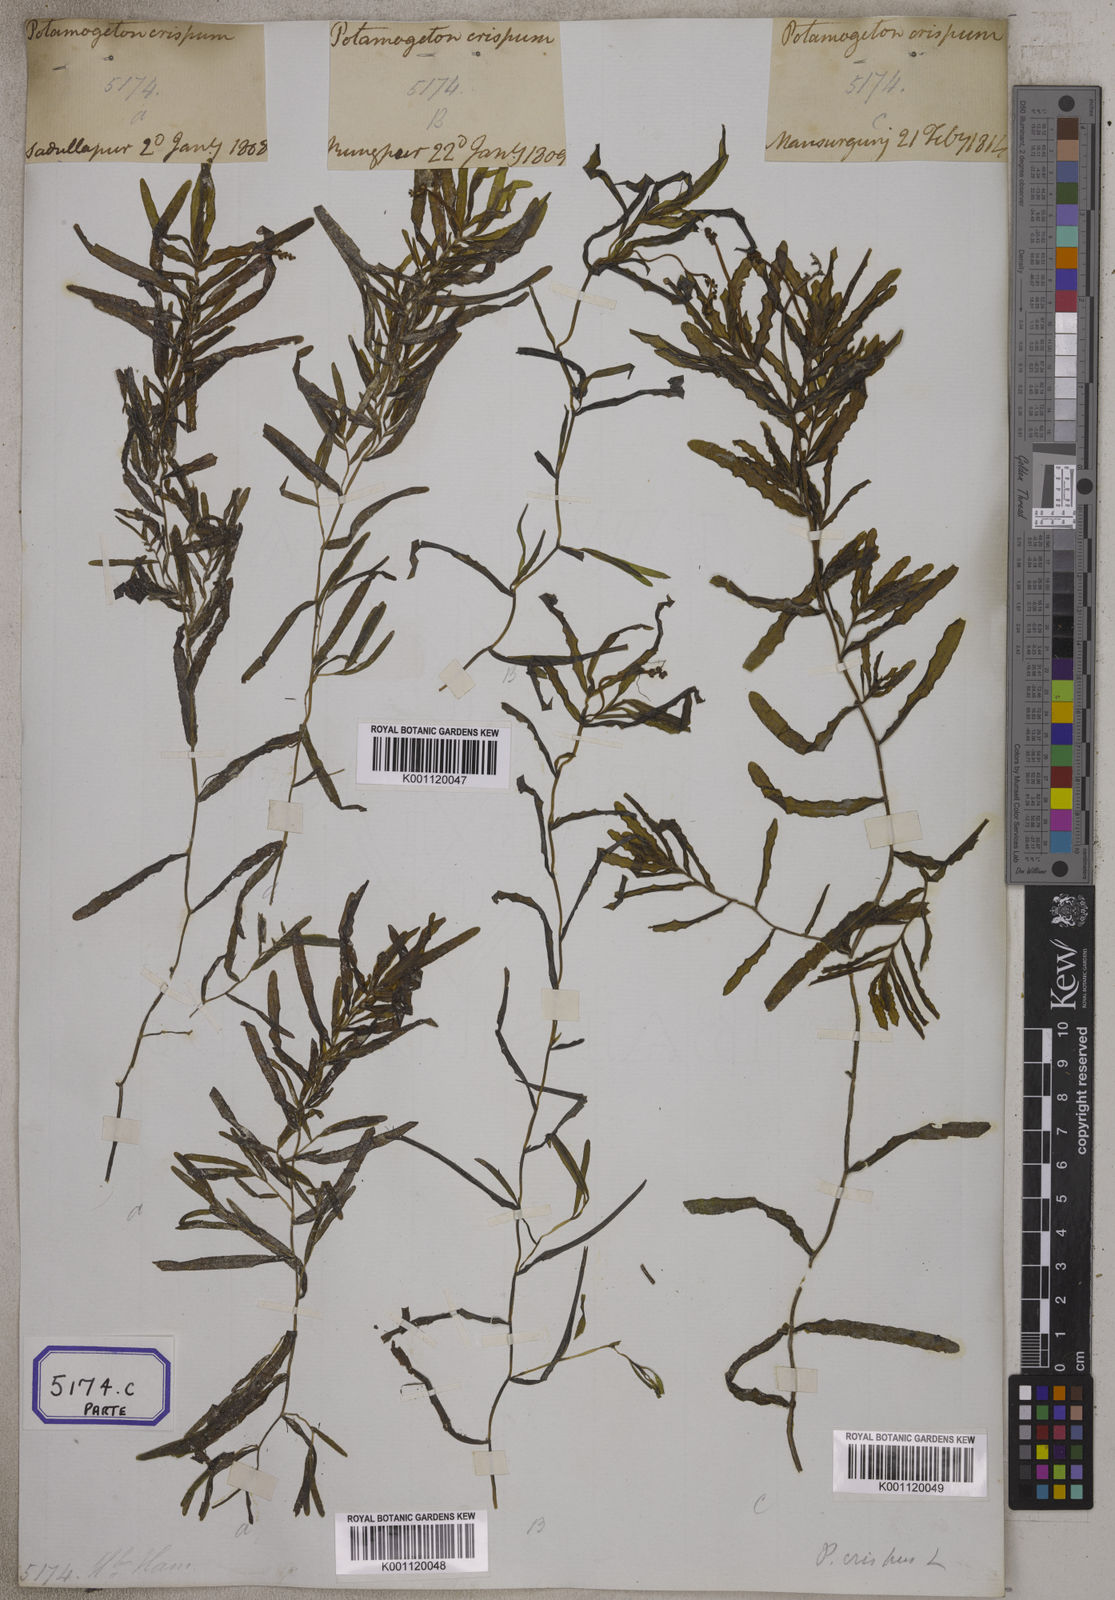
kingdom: Plantae
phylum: Tracheophyta
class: Liliopsida
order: Alismatales
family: Potamogetonaceae
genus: Potamogeton
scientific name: Potamogeton crispus
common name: Curled pondweed
